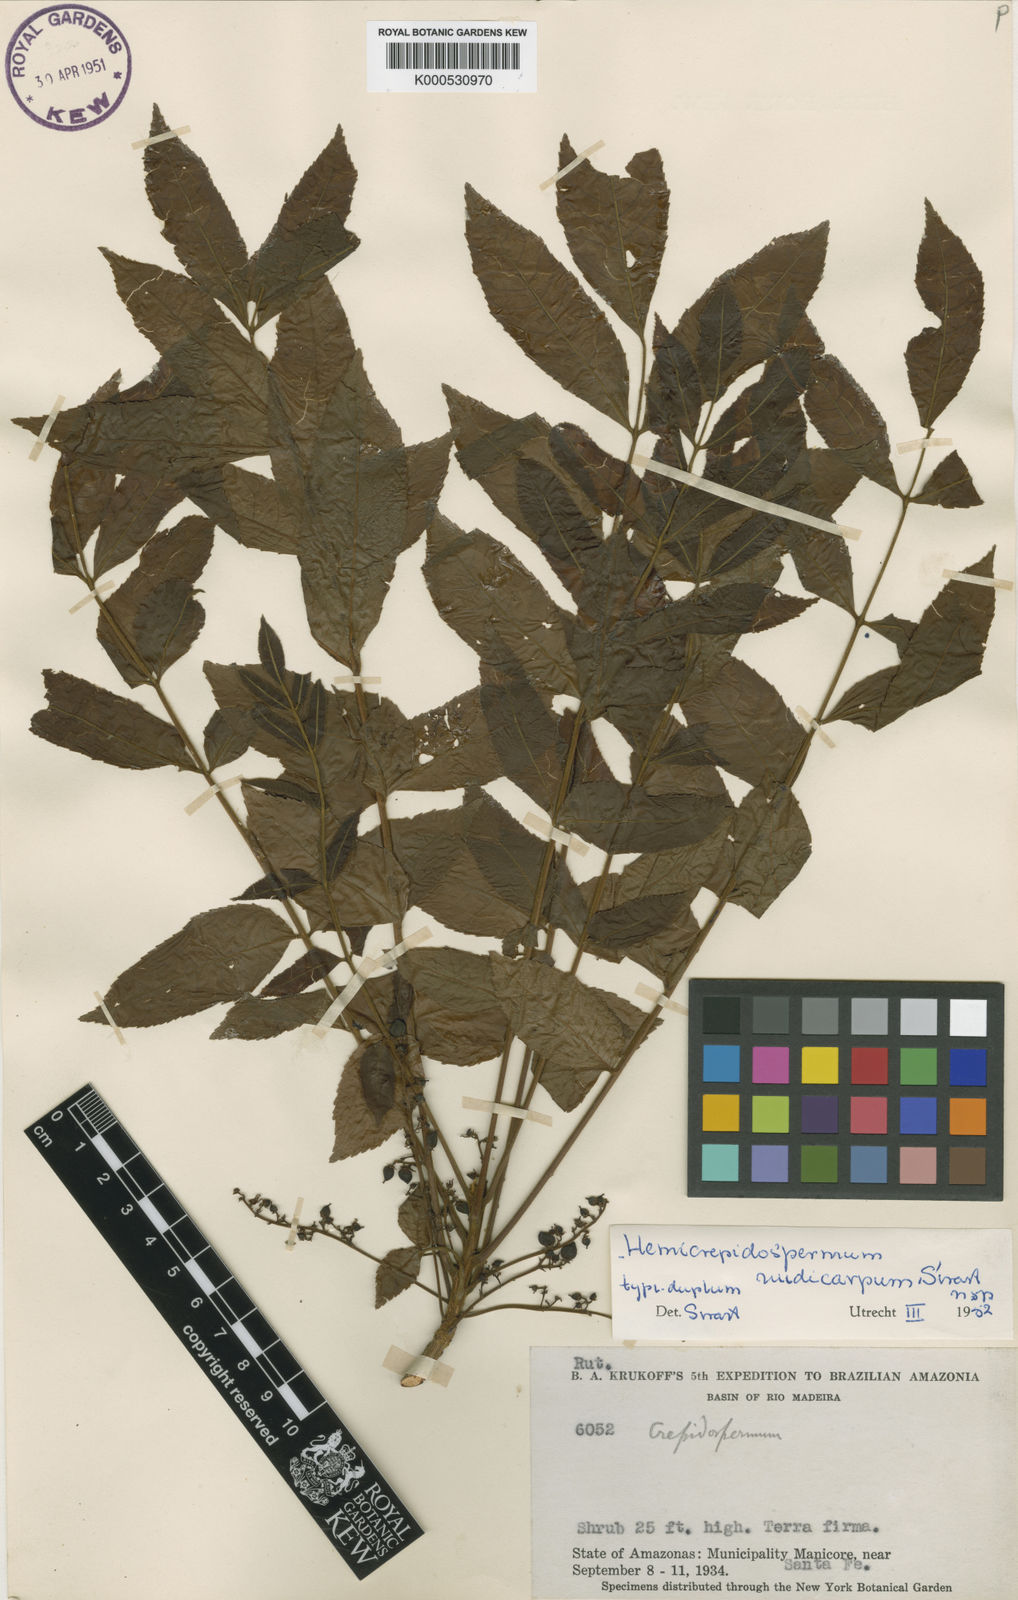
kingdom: Plantae
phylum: Tracheophyta
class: Magnoliopsida
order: Sapindales
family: Burseraceae
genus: Crepidospermum
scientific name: Crepidospermum
